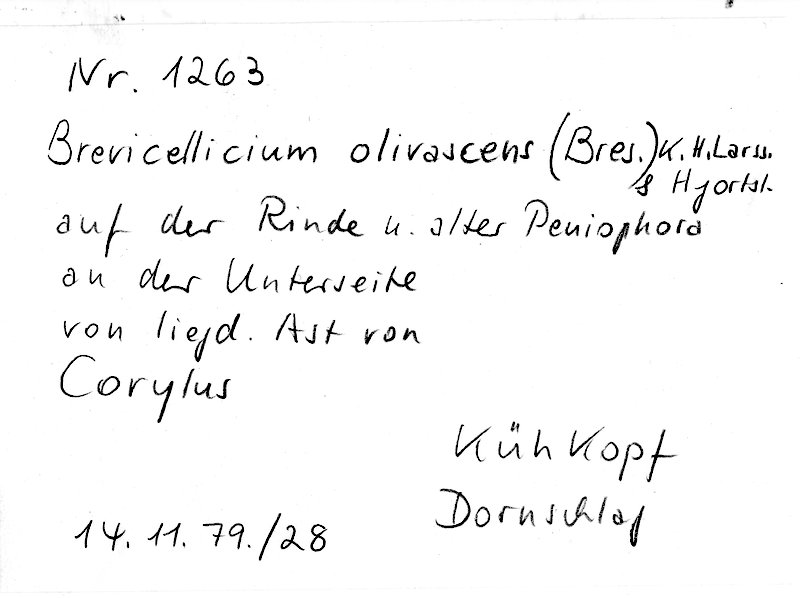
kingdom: Plantae
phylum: Tracheophyta
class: Magnoliopsida
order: Fagales
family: Betulaceae
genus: Corylus
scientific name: Corylus
